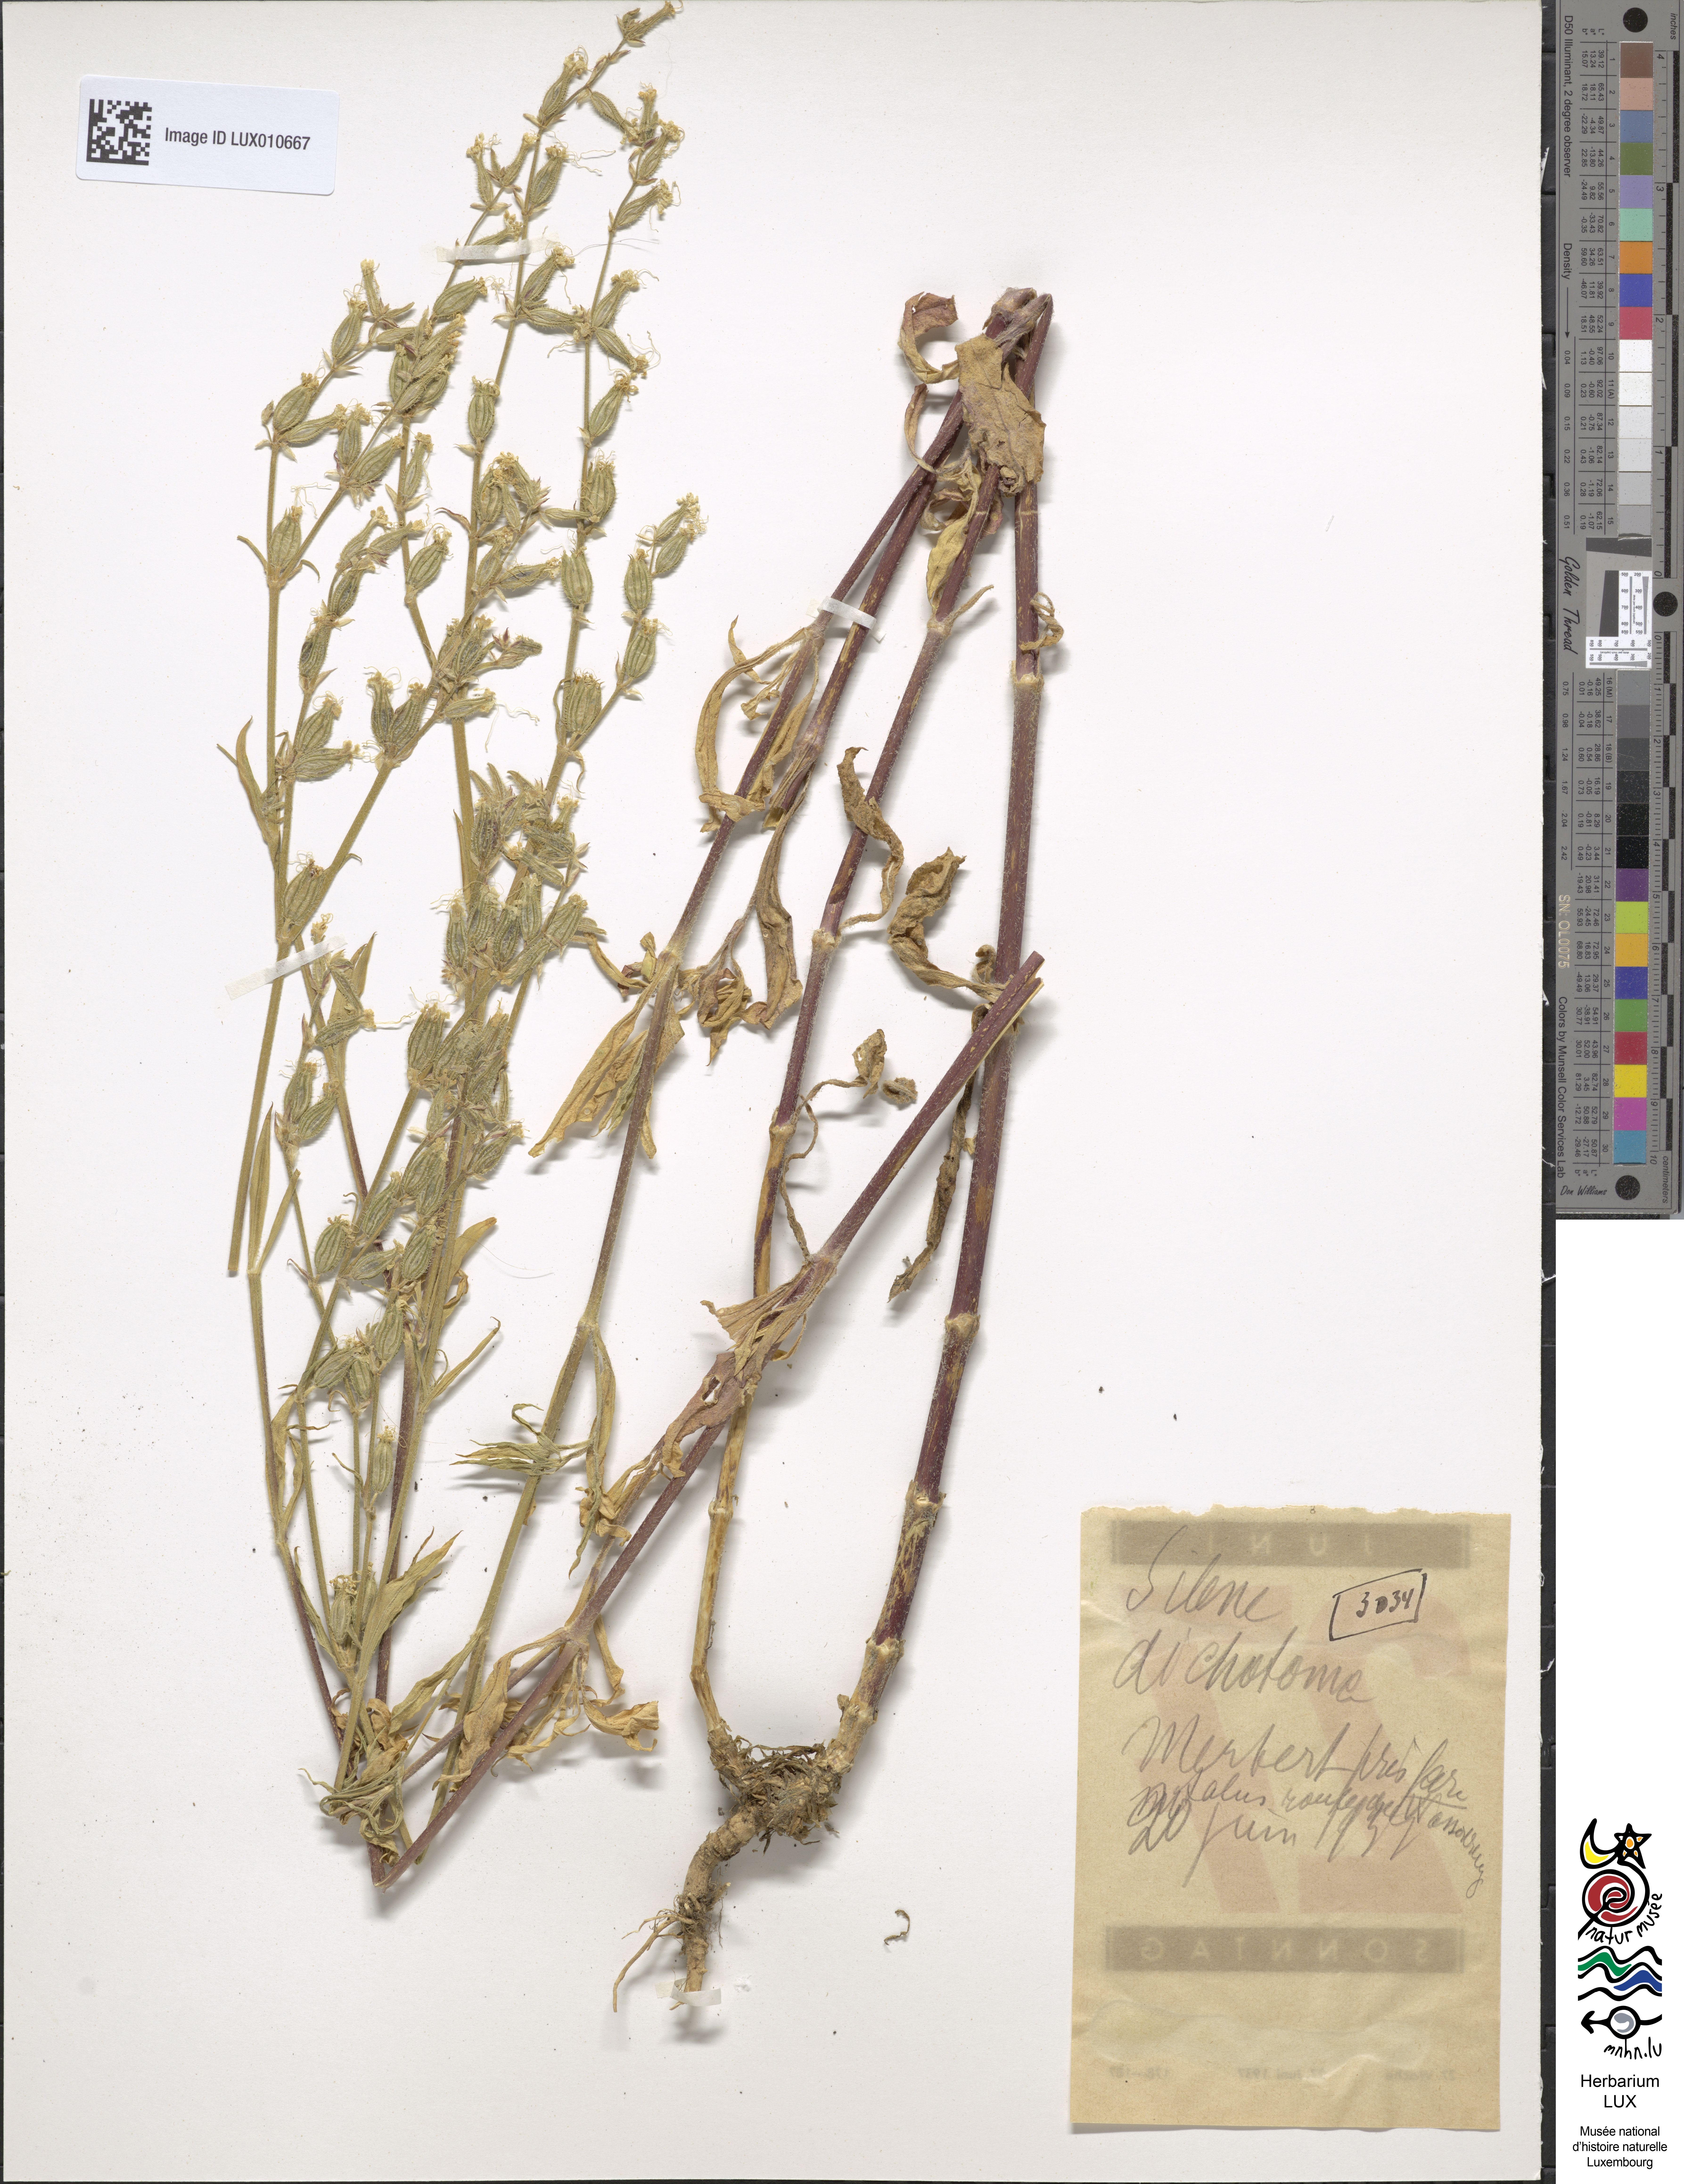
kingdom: Plantae
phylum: Tracheophyta
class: Magnoliopsida
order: Caryophyllales
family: Caryophyllaceae
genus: Silene
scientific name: Silene dichotoma
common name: Forked catchfly
